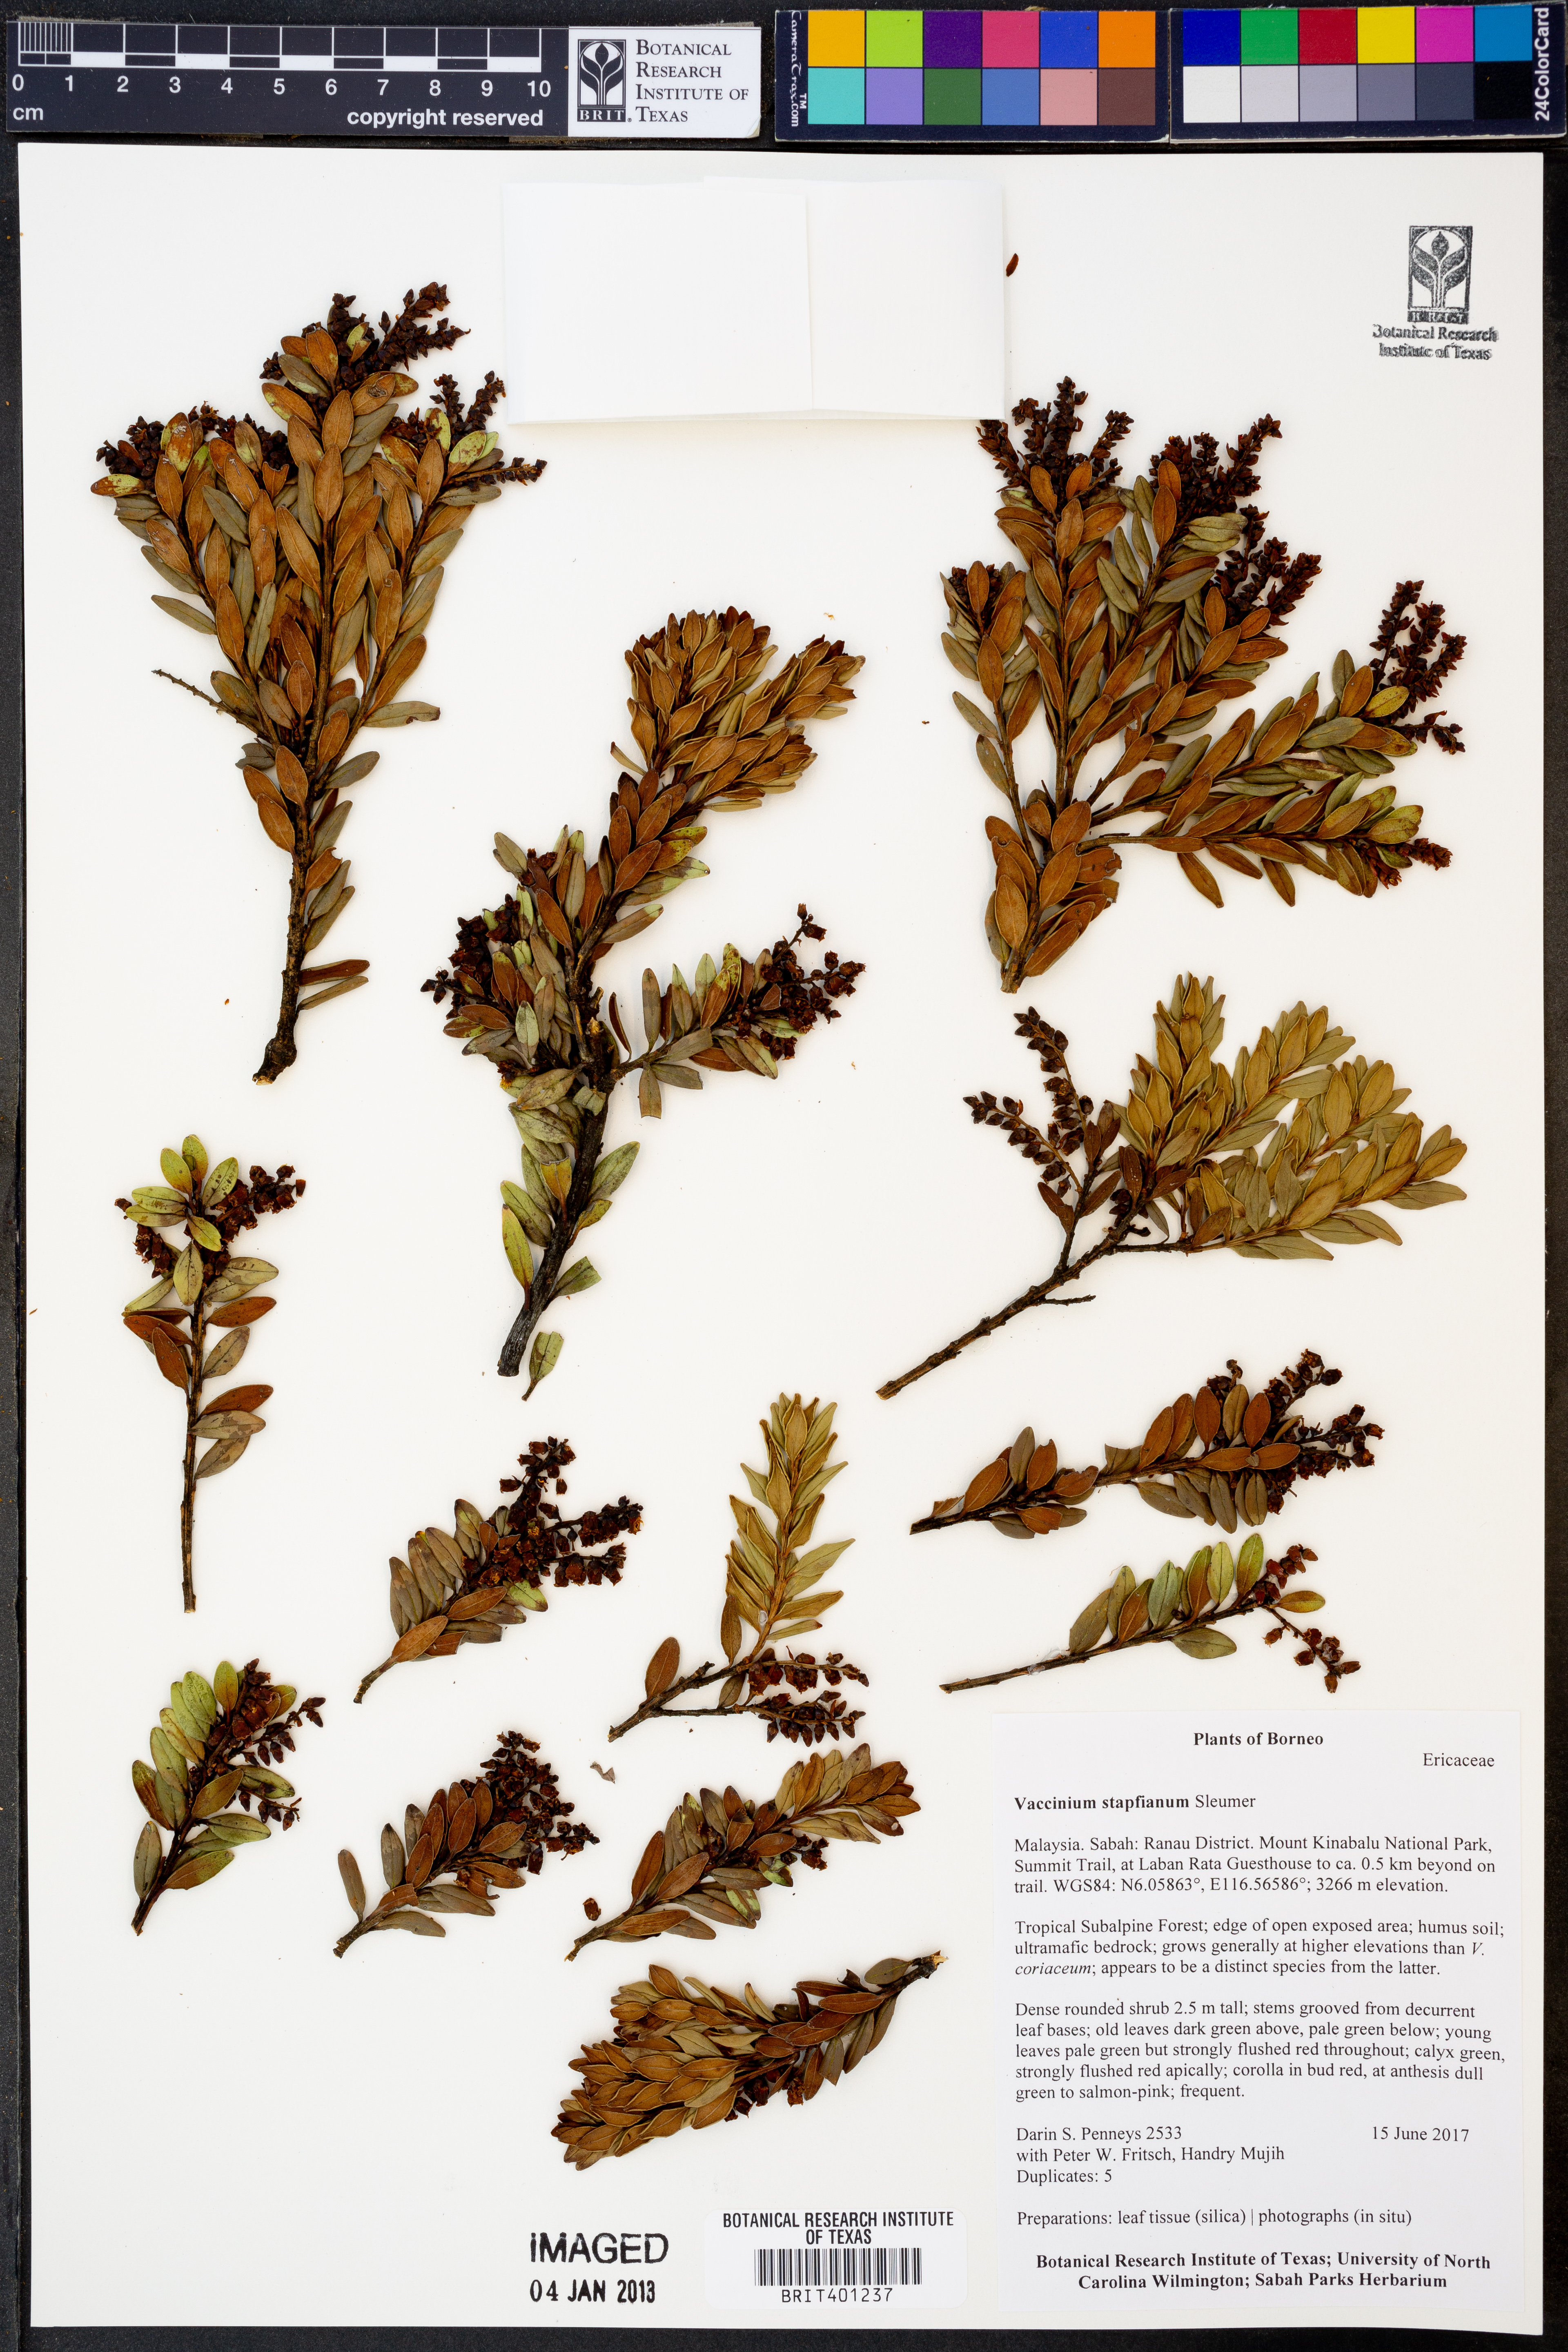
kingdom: Plantae
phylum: Tracheophyta
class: Magnoliopsida
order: Ericales
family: Ericaceae
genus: Vaccinium
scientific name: Vaccinium coriaceum
